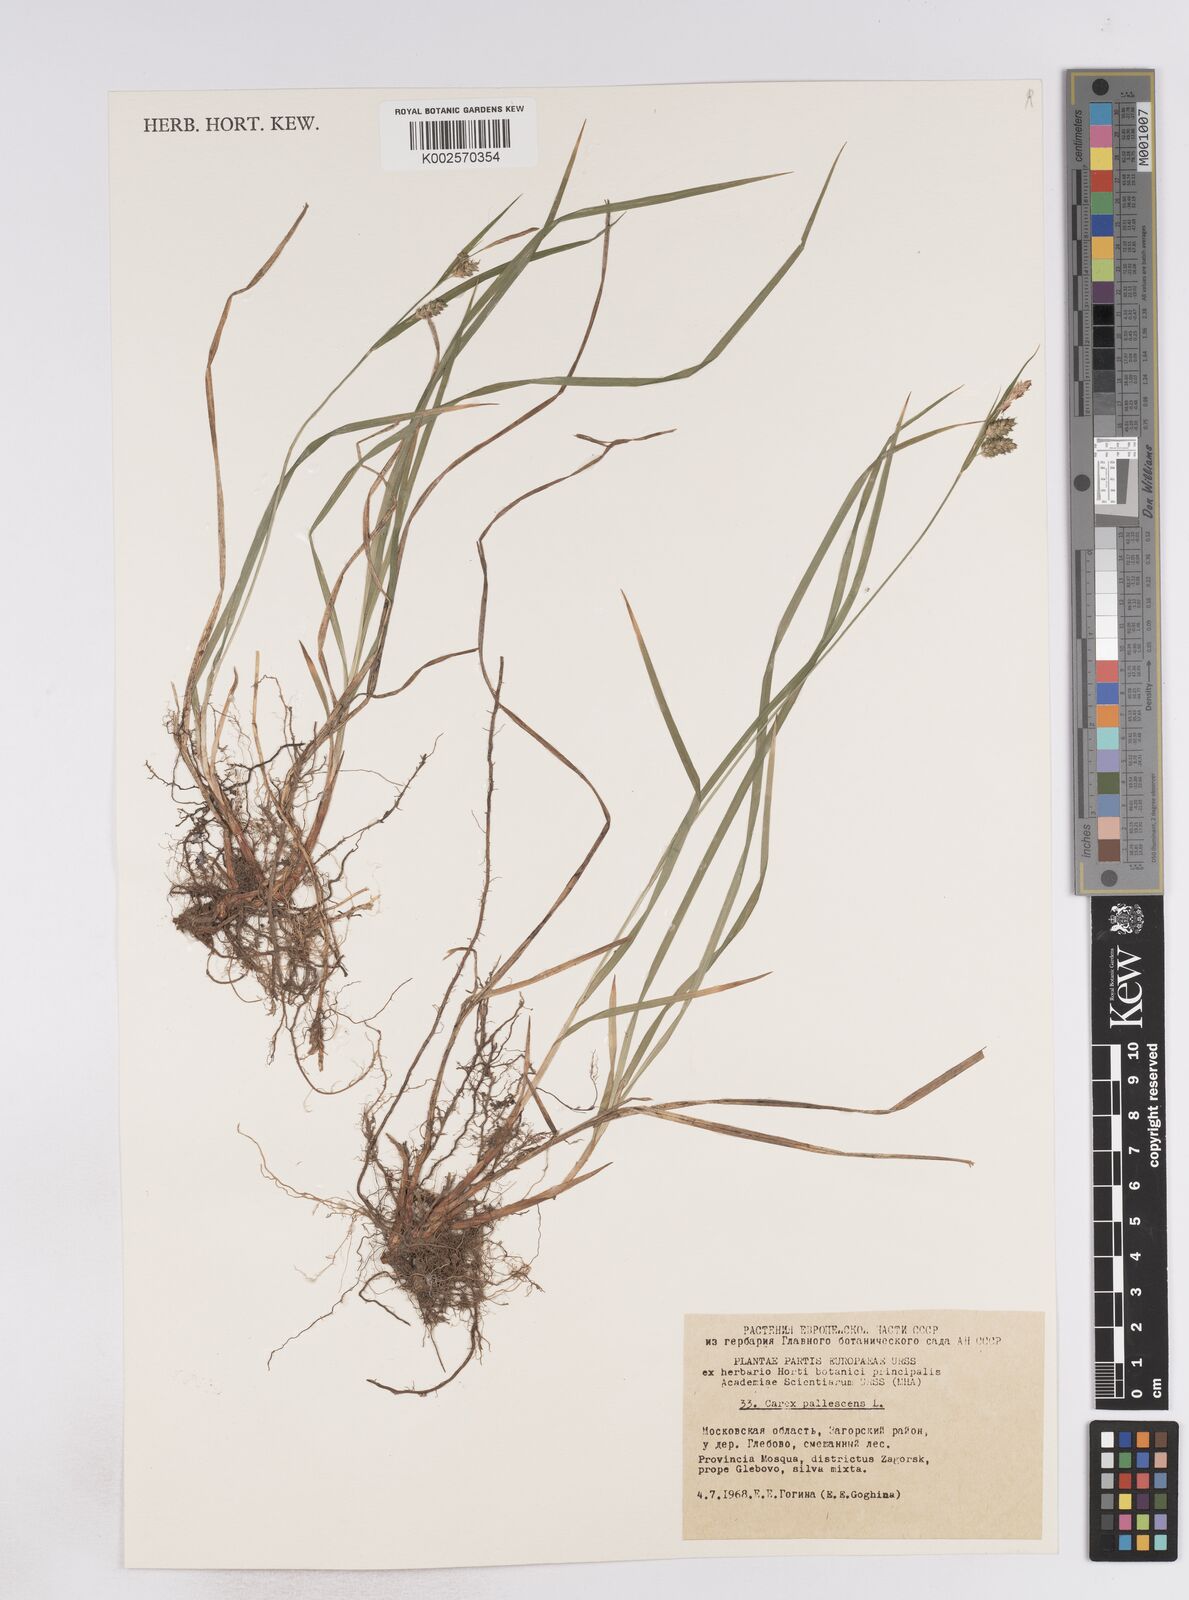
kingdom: Plantae
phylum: Tracheophyta
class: Liliopsida
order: Poales
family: Cyperaceae
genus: Carex
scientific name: Carex pallescens
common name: Pale sedge
